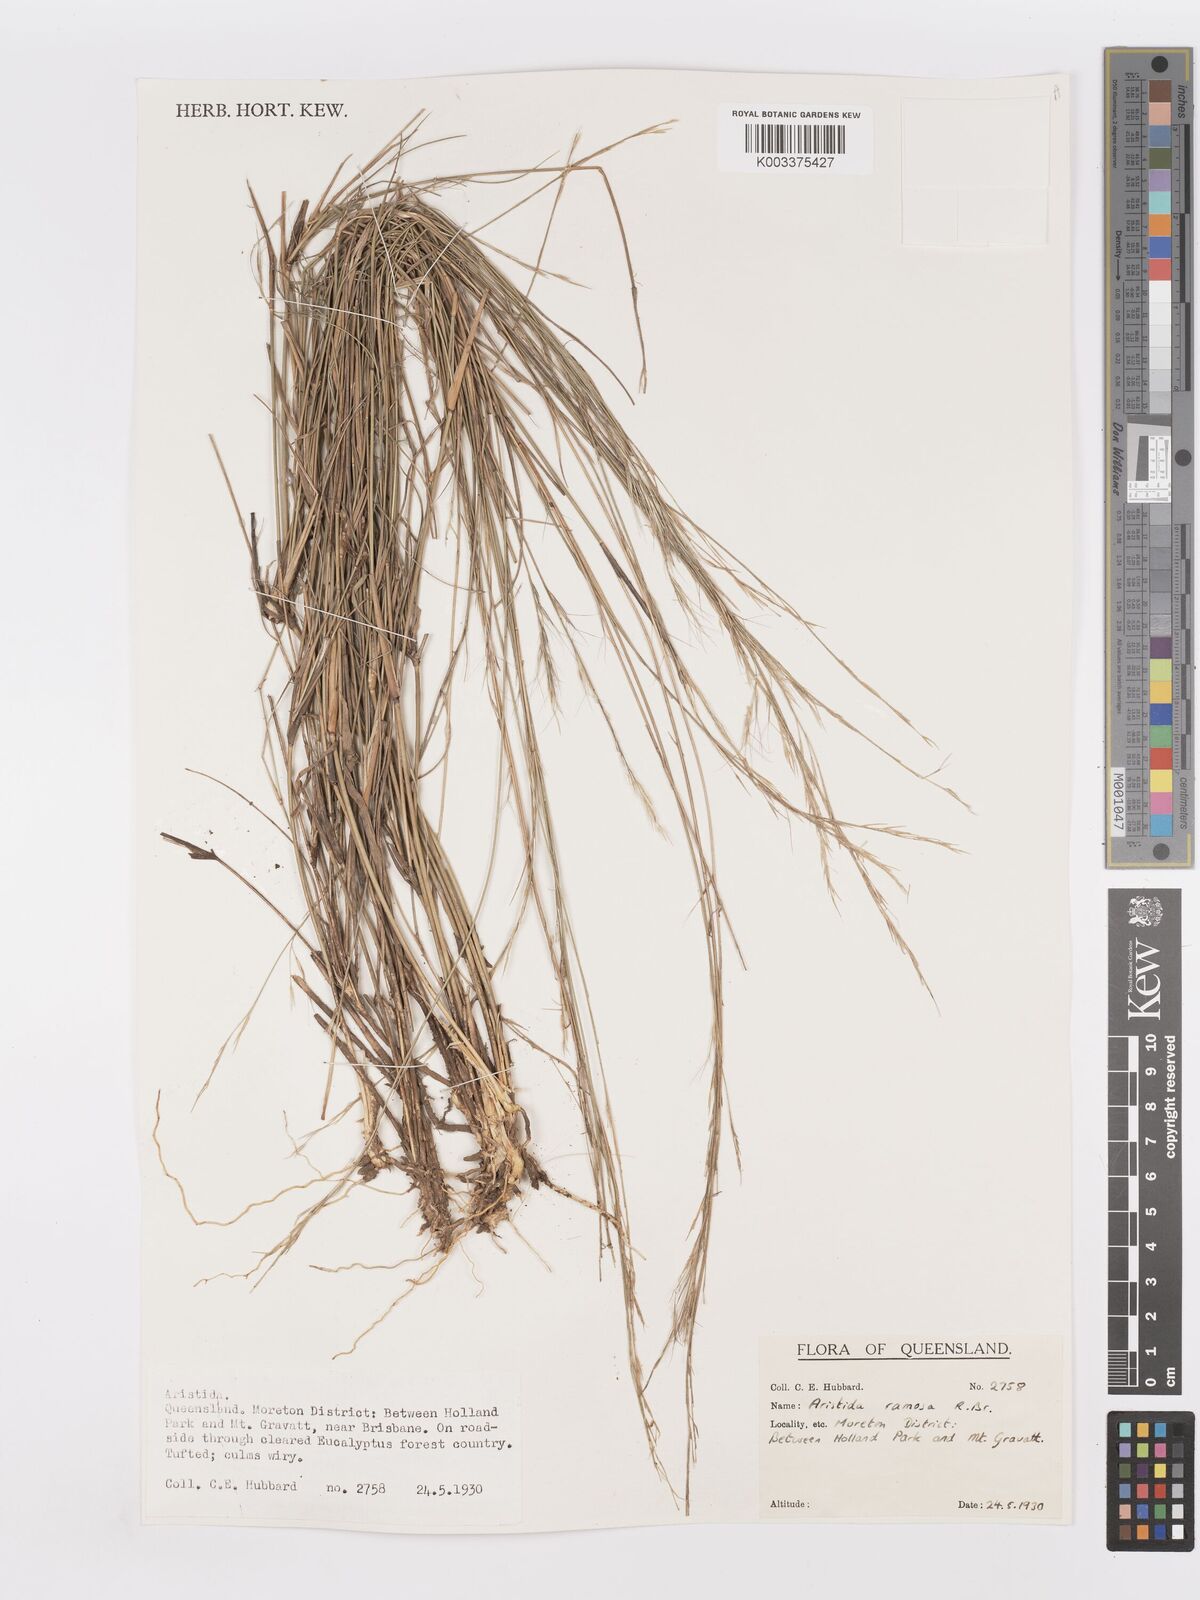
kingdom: Plantae
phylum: Tracheophyta
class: Liliopsida
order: Poales
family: Poaceae
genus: Aristida
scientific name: Aristida ramosa
